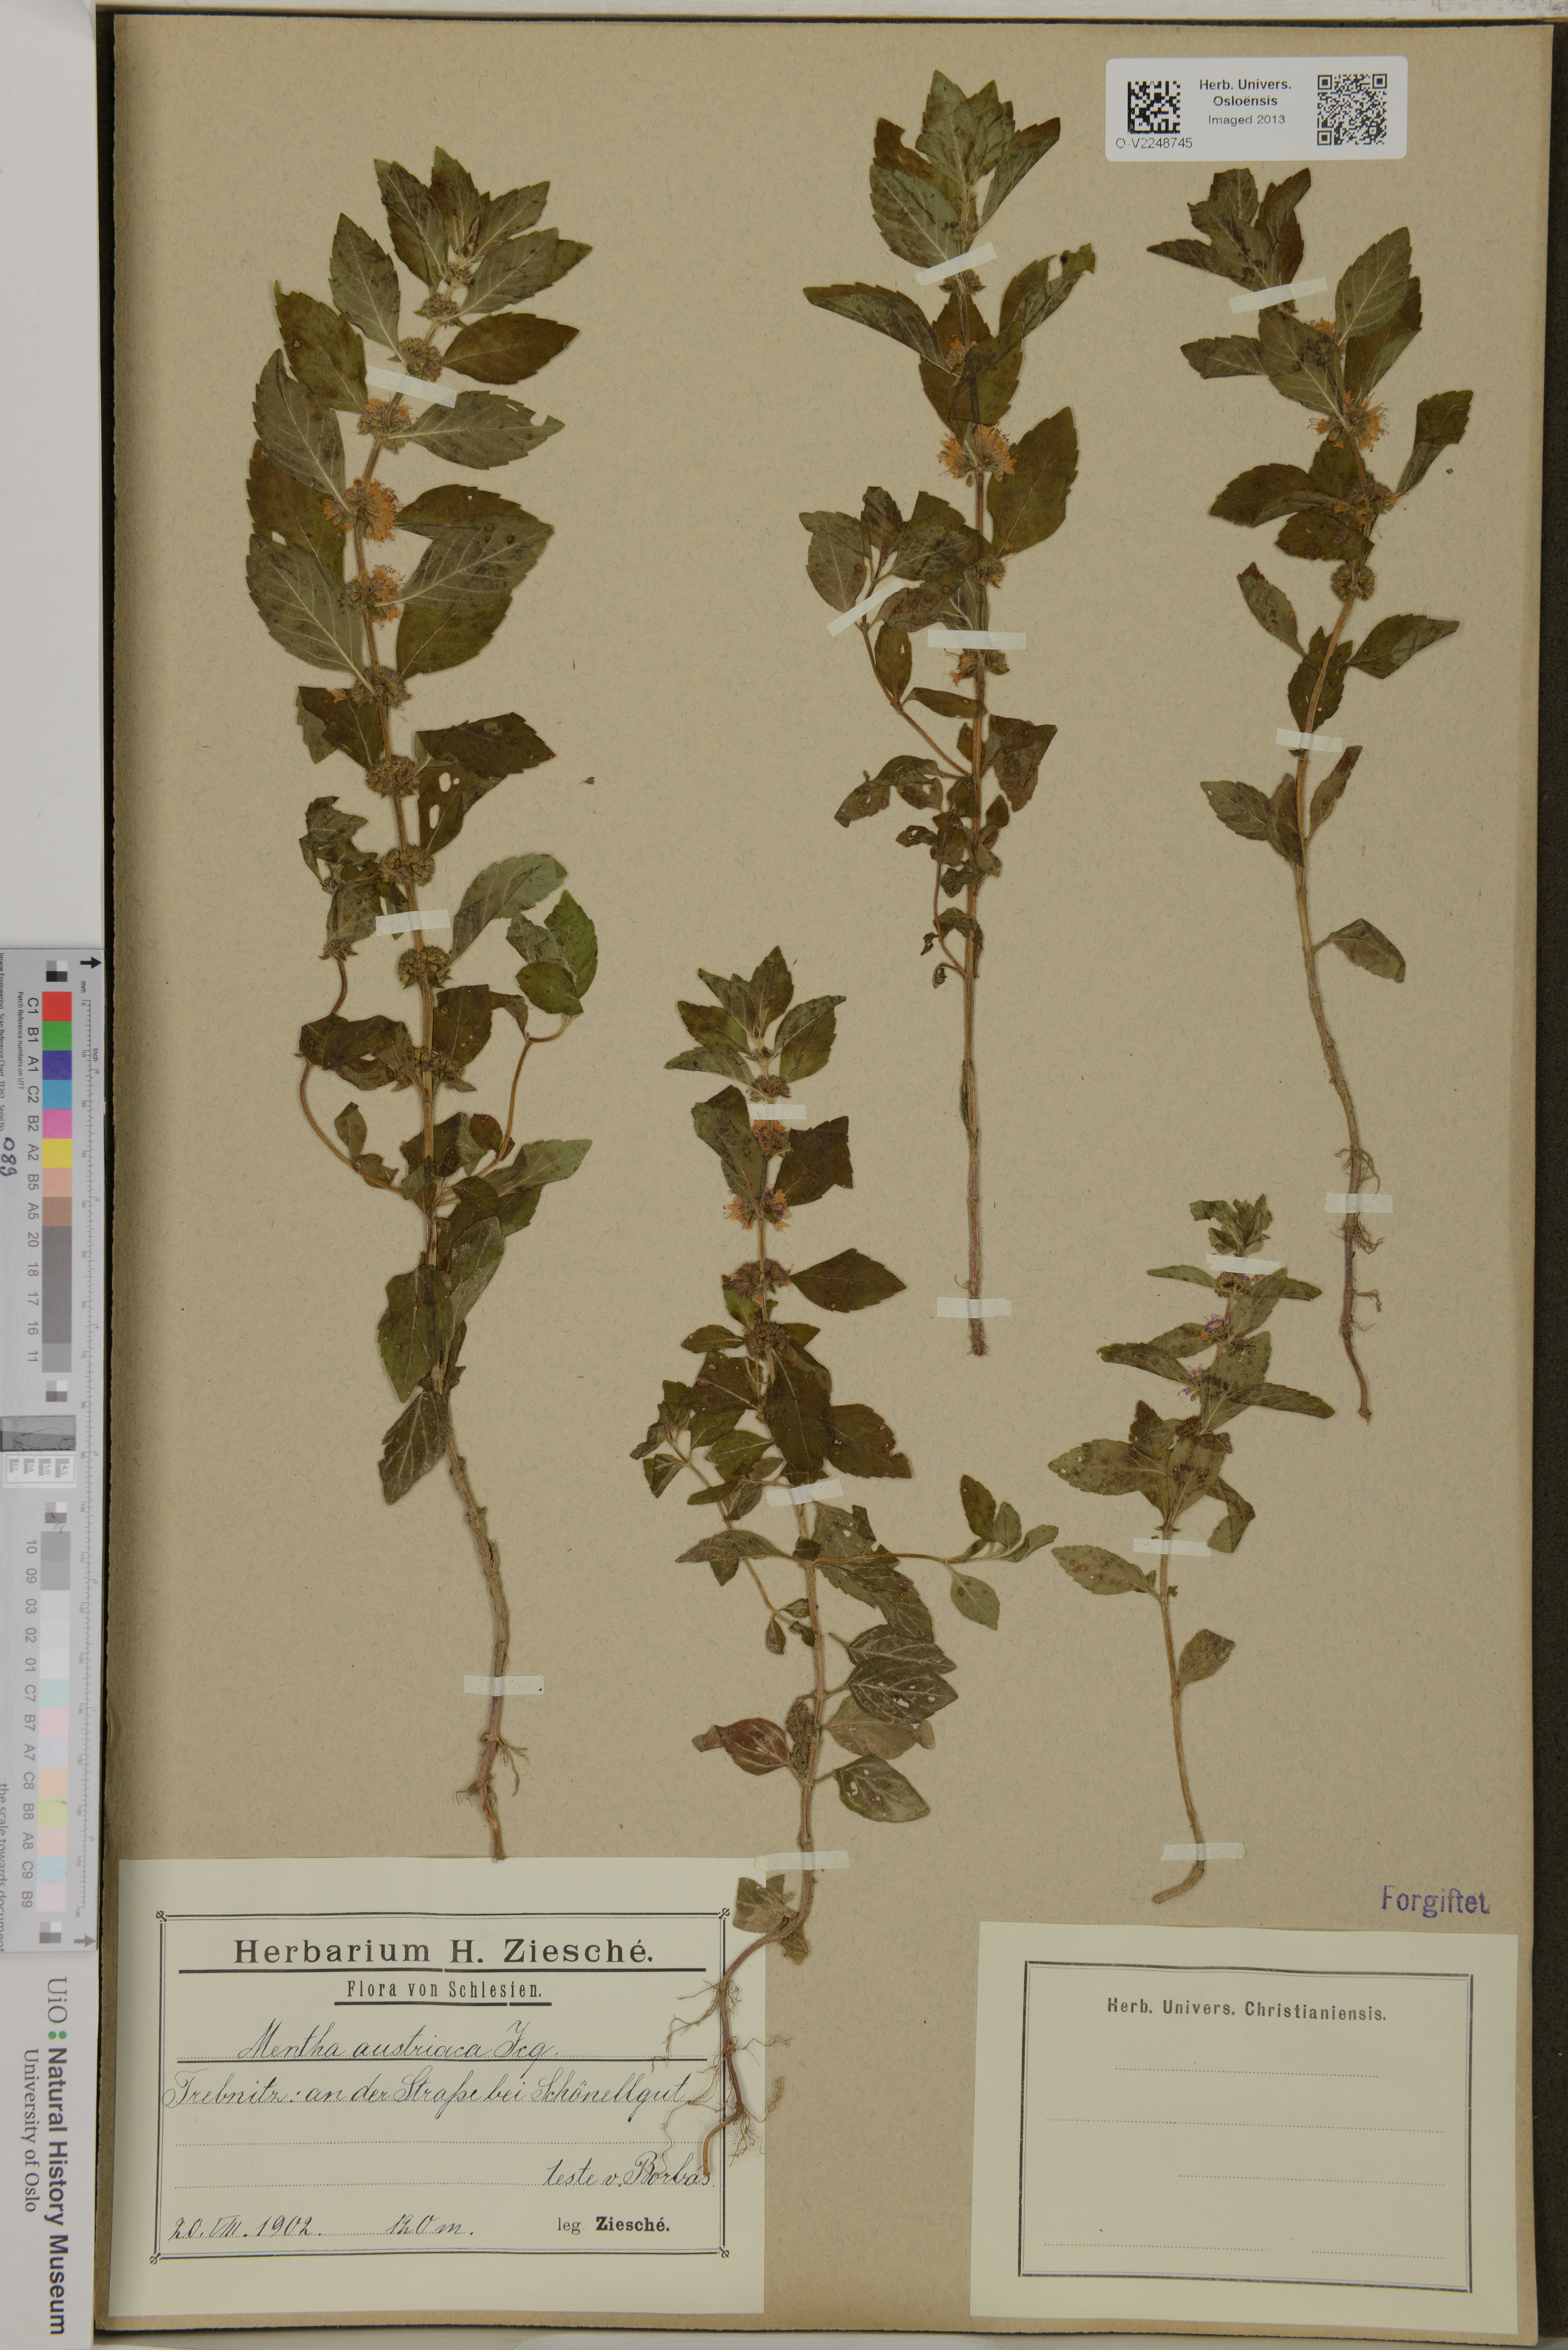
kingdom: Plantae
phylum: Tracheophyta
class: Magnoliopsida
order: Lamiales
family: Lamiaceae
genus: Mentha
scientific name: Mentha arvensis
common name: Corn mint
